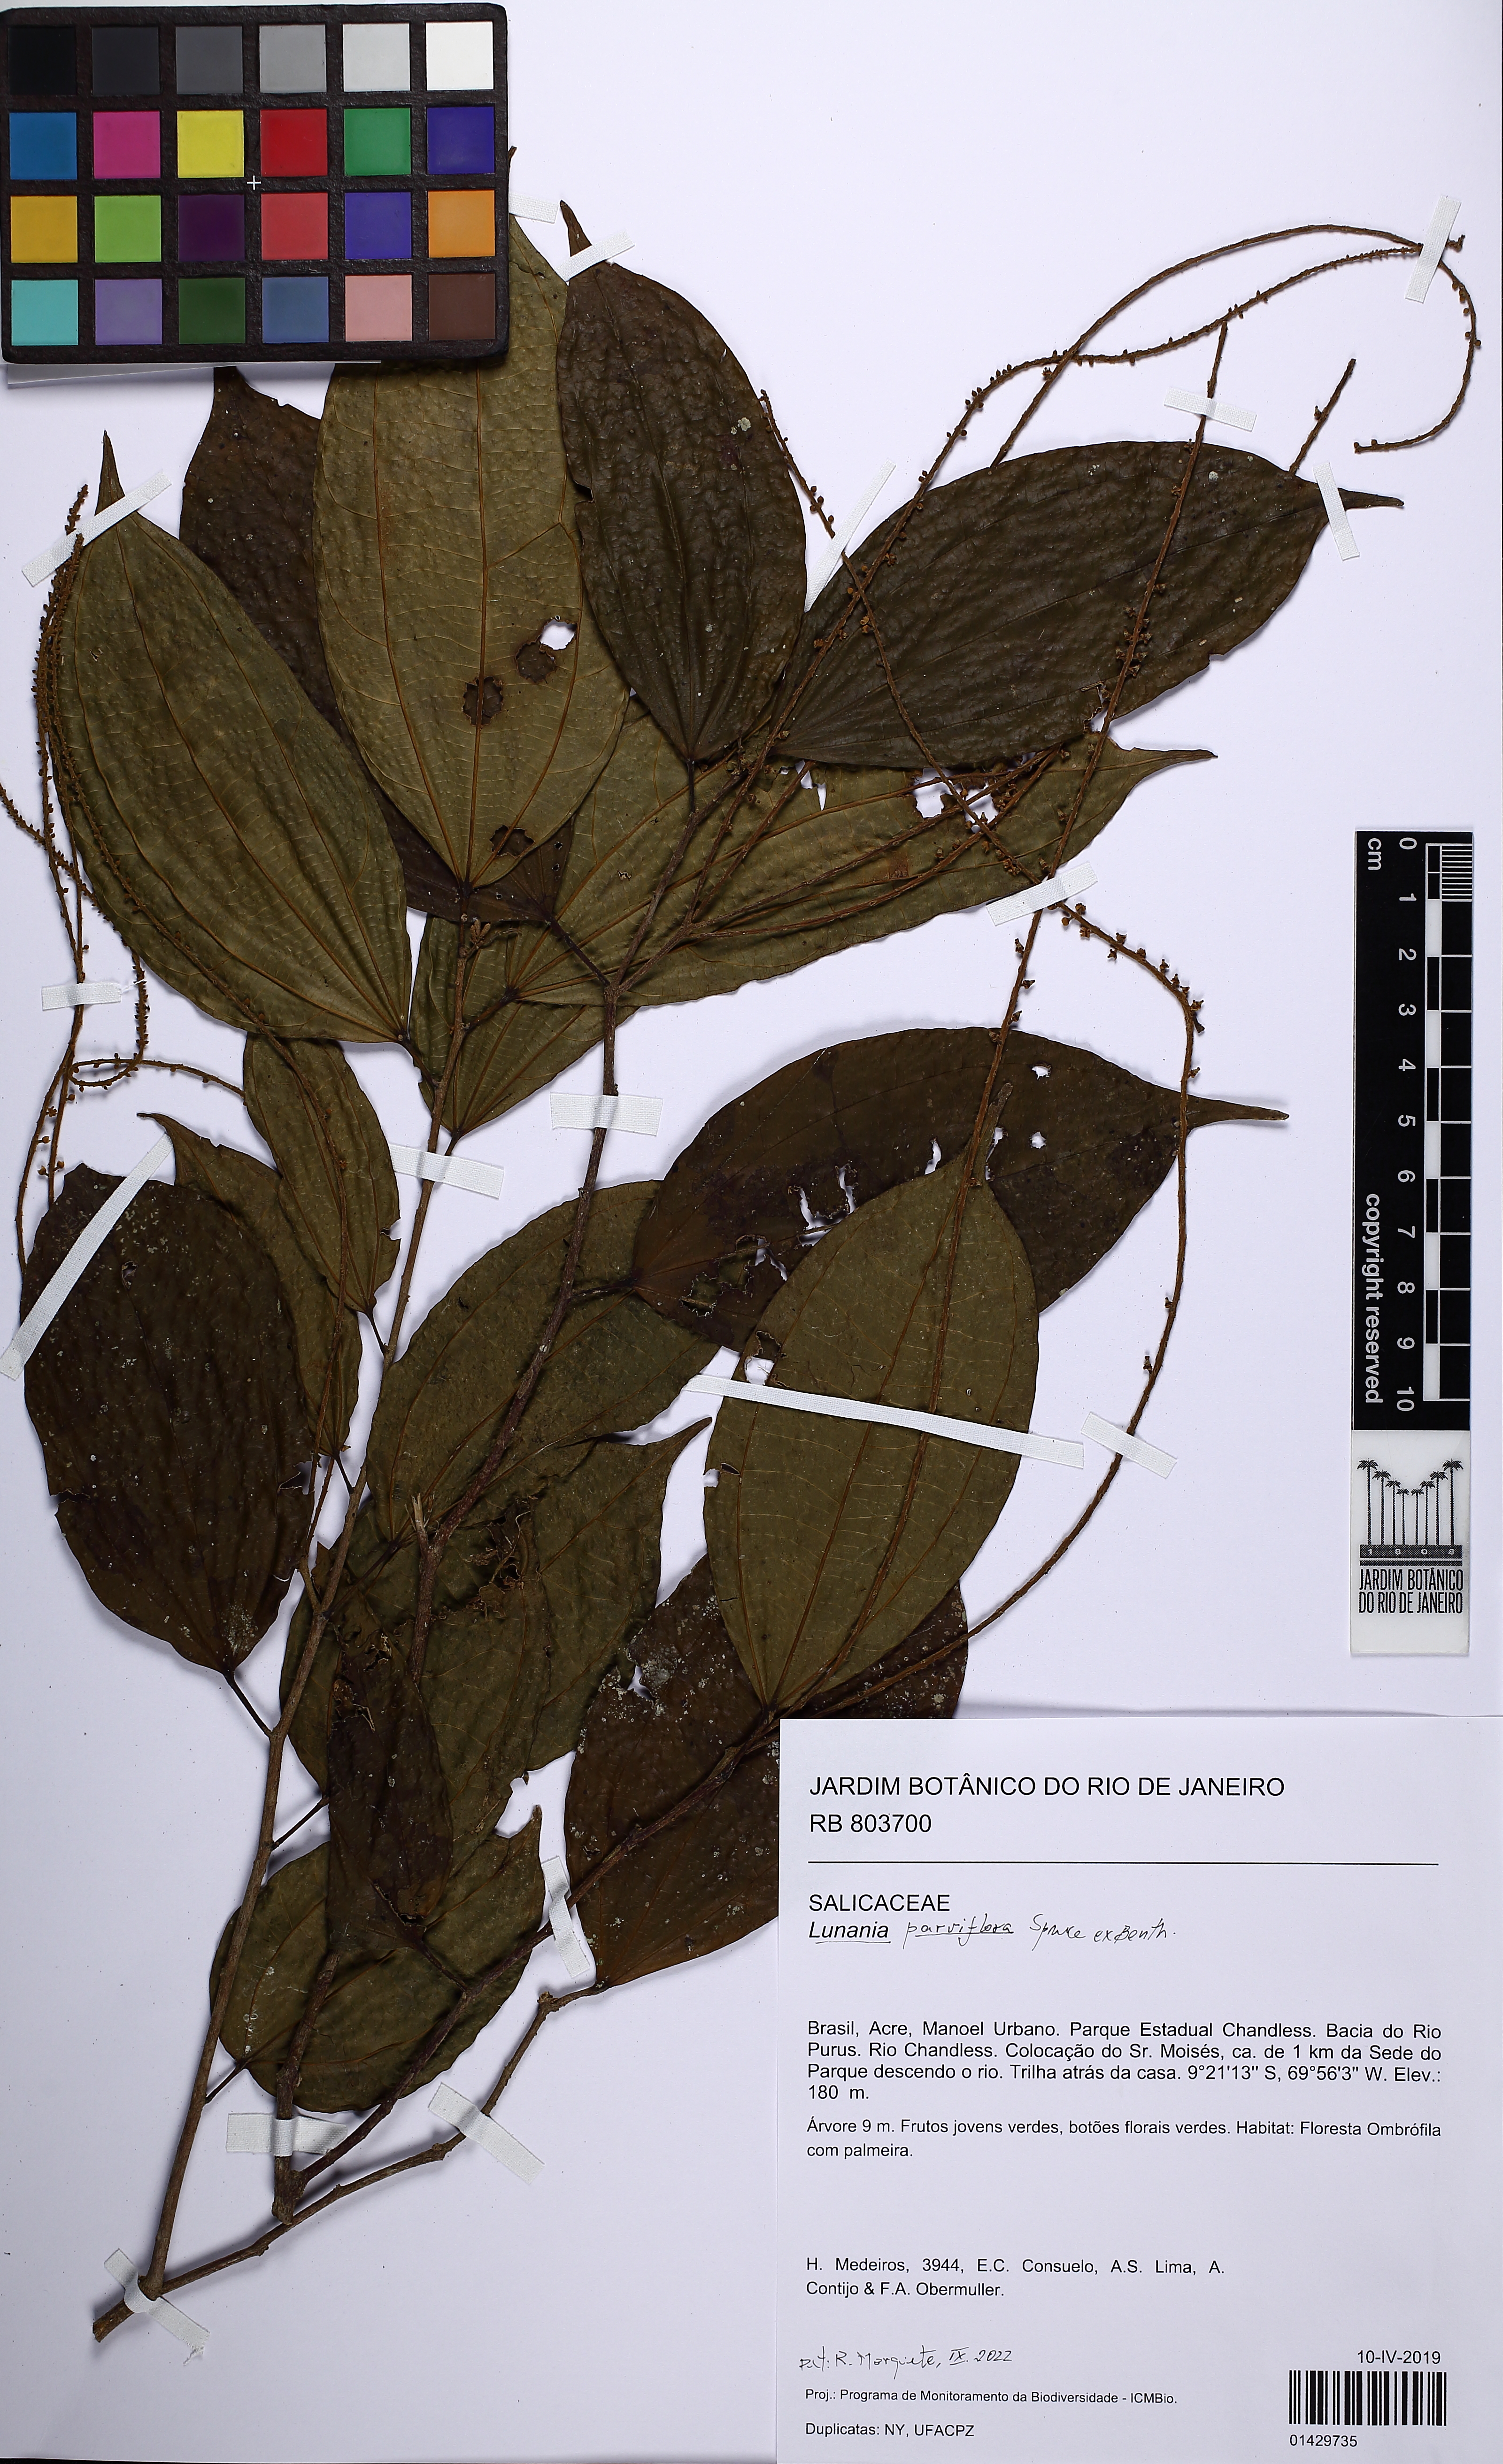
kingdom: Plantae
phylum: Tracheophyta
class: Magnoliopsida
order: Malpighiales
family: Salicaceae
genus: Lunania
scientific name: Lunania parviflora
